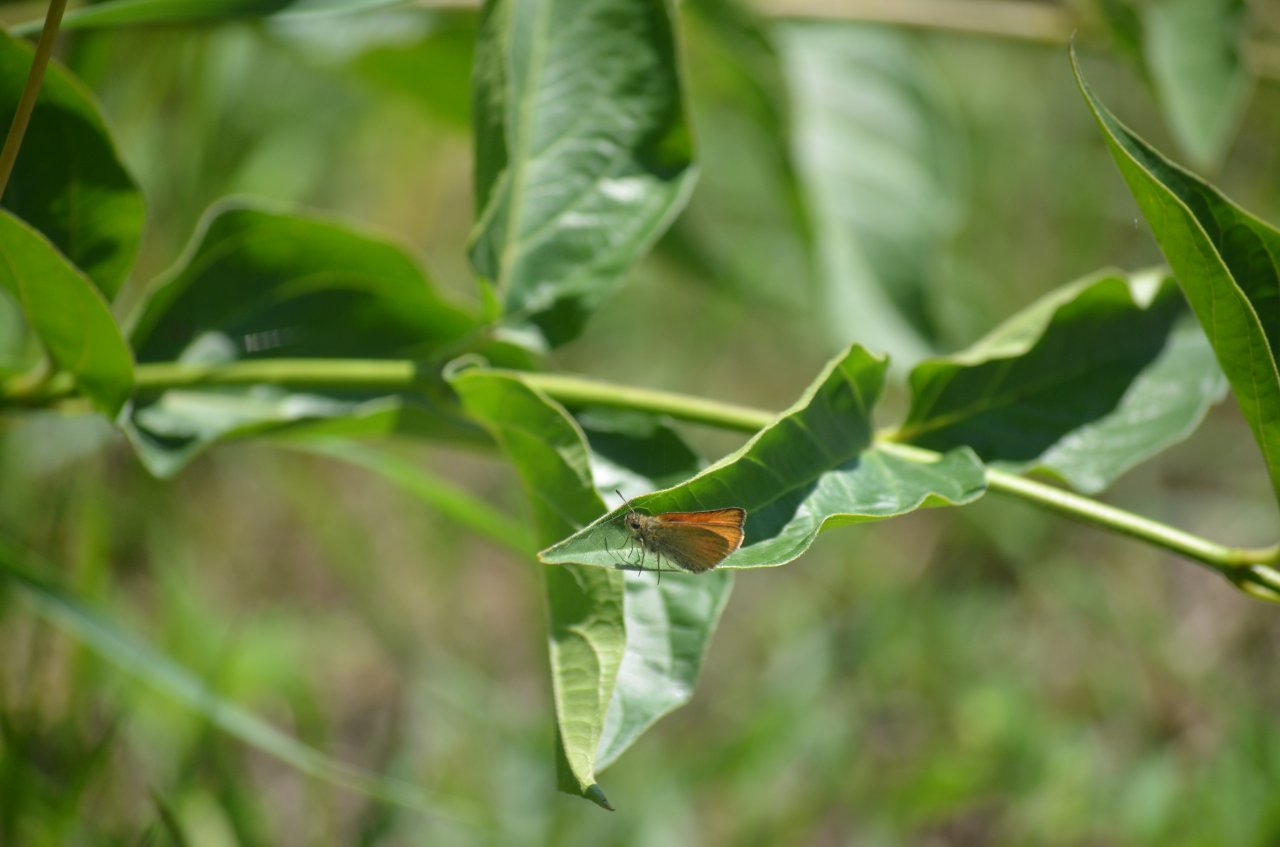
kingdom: Animalia
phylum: Arthropoda
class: Insecta
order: Lepidoptera
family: Hesperiidae
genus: Thymelicus
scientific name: Thymelicus lineola
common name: European Skipper
